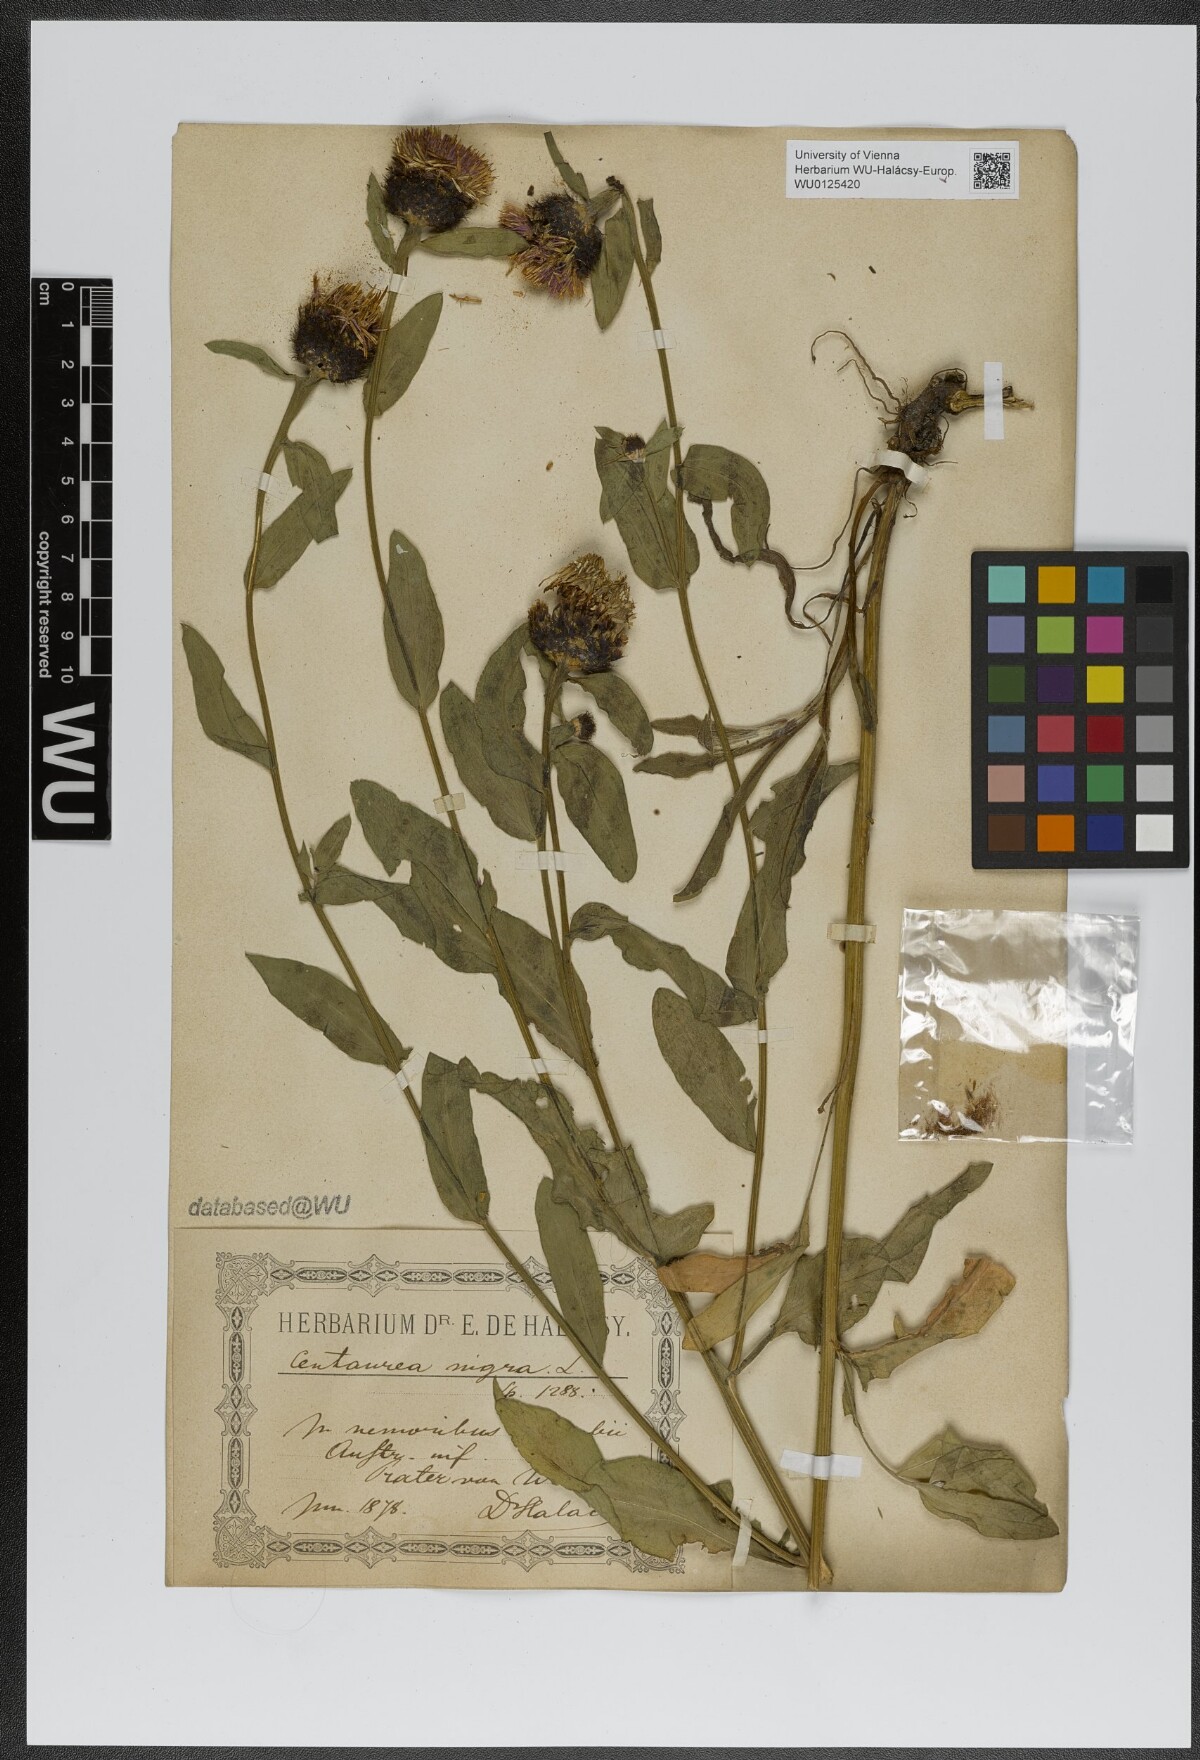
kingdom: Plantae
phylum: Tracheophyta
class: Magnoliopsida
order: Asterales
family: Asteraceae
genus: Centaurea
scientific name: Centaurea nigra
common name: Lesser knapweed
